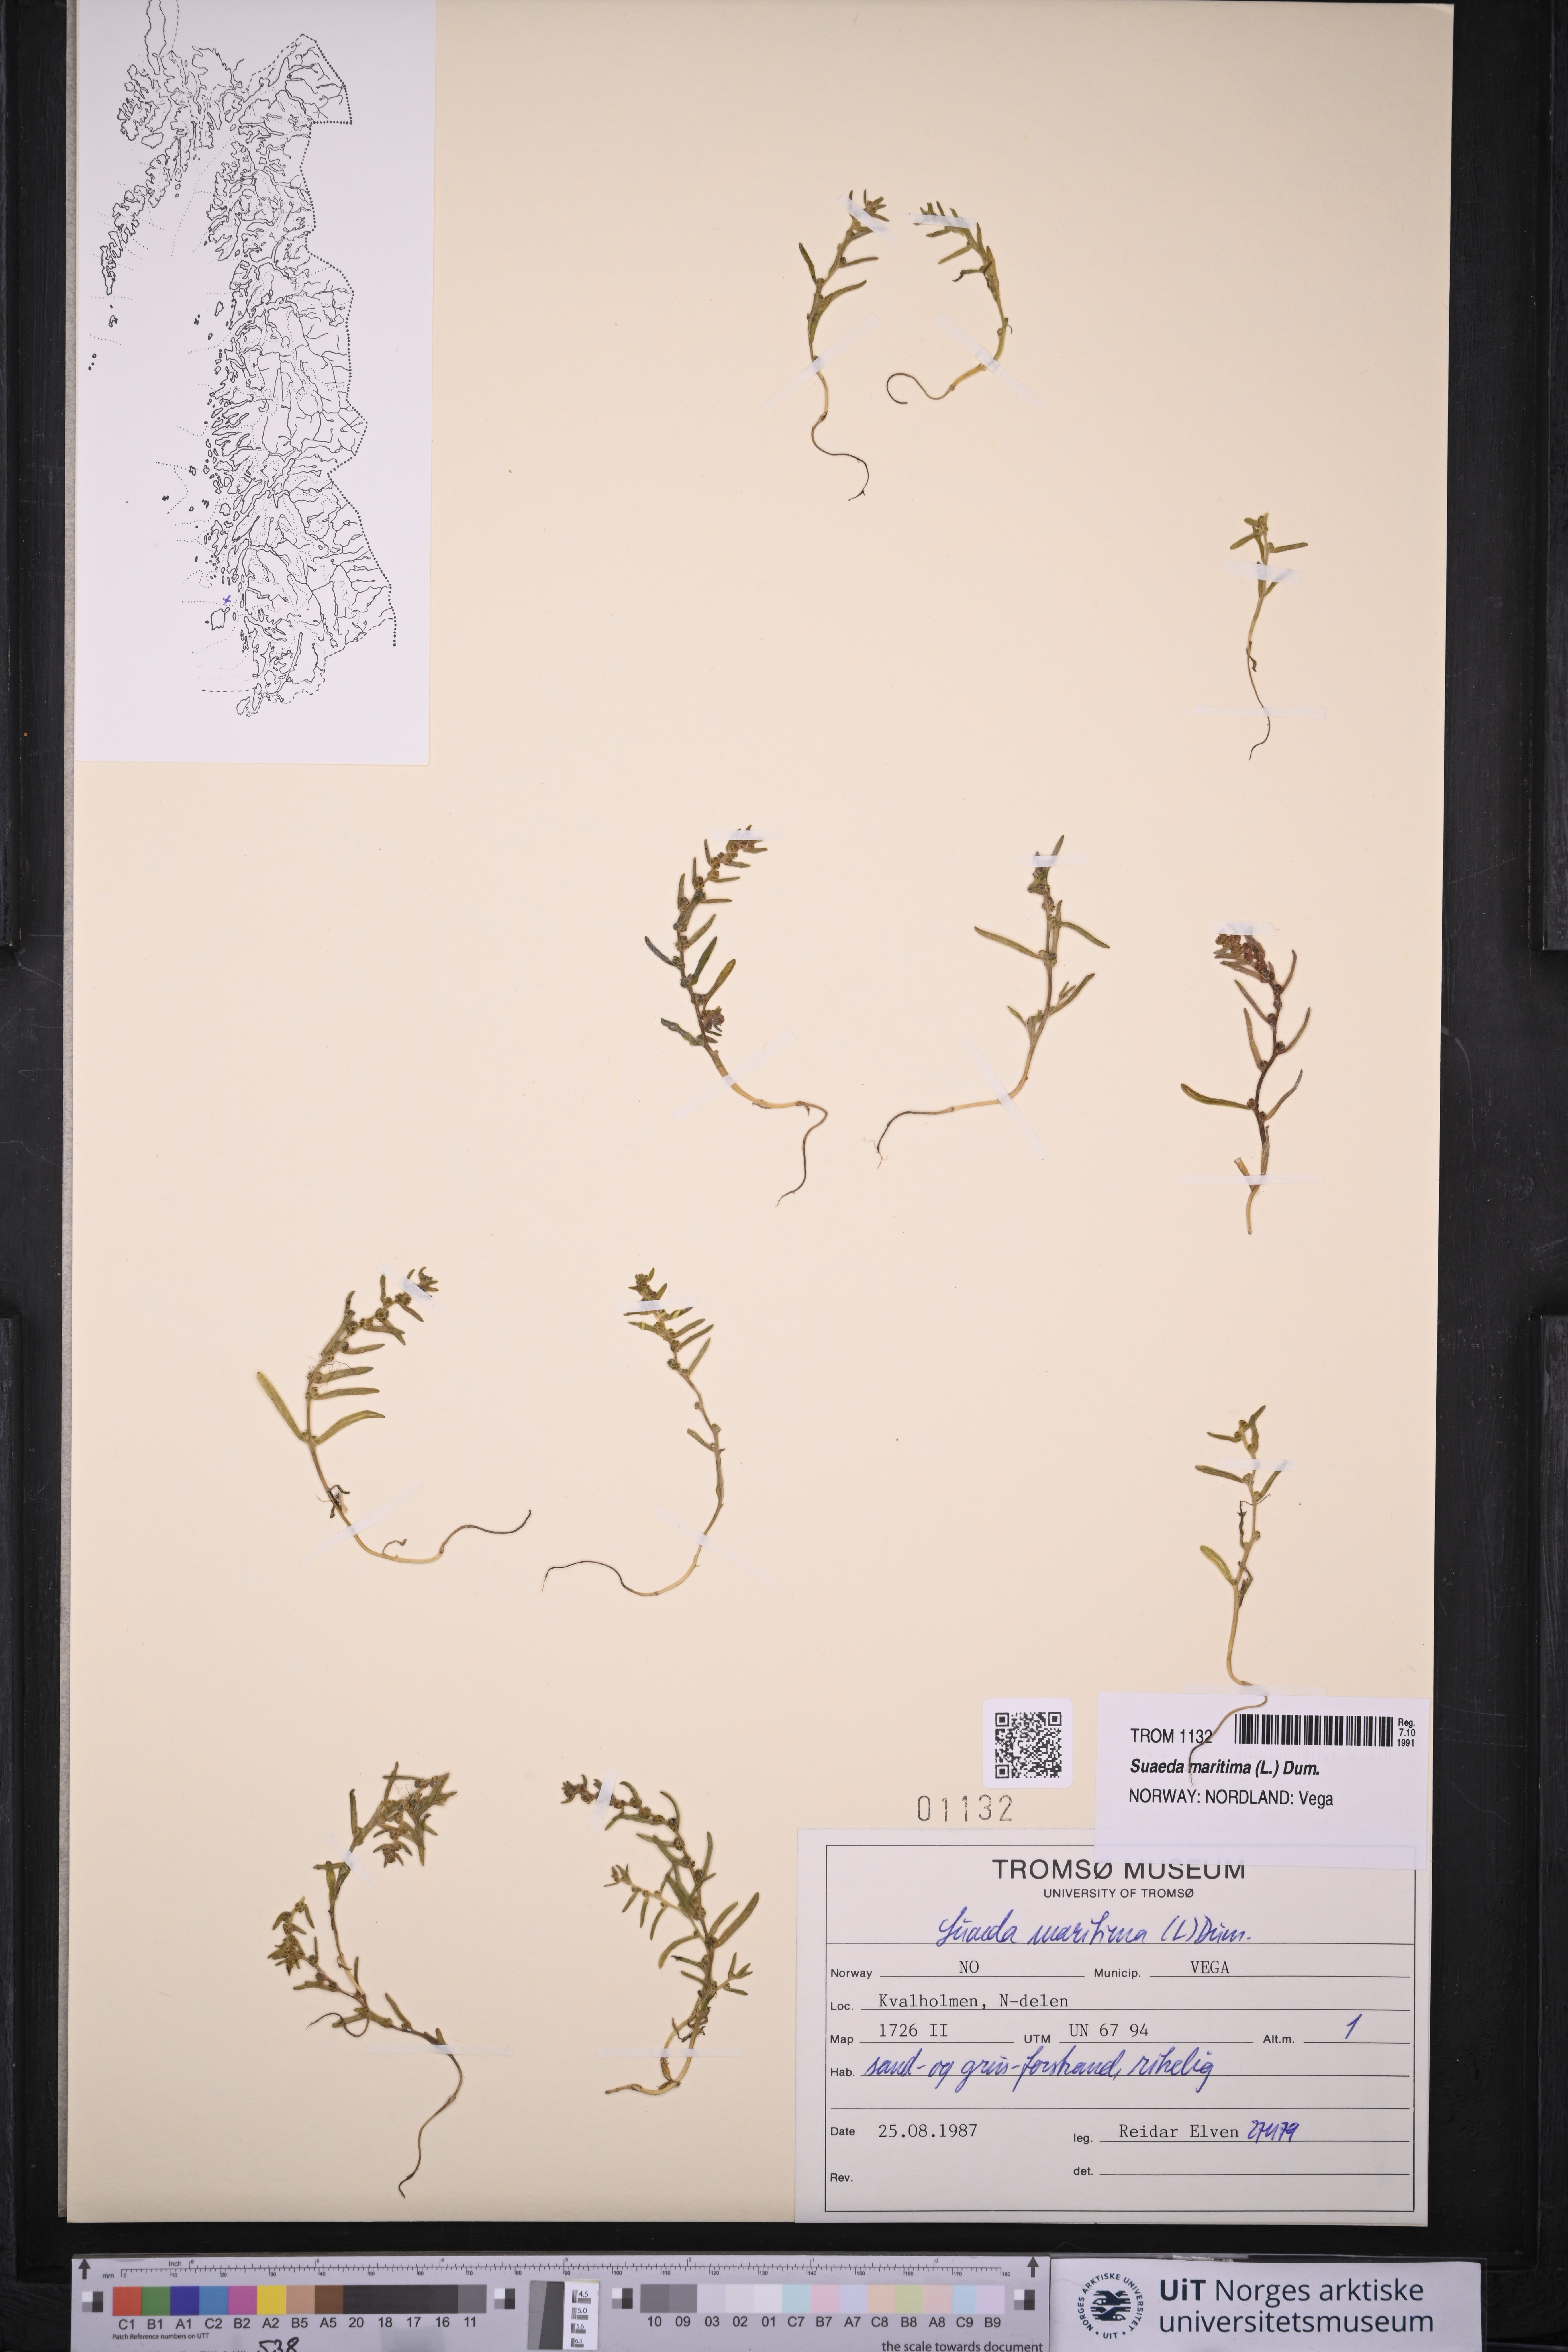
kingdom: Plantae
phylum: Tracheophyta
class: Magnoliopsida
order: Caryophyllales
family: Amaranthaceae
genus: Suaeda
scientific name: Suaeda maritima
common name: Annual sea-blite
